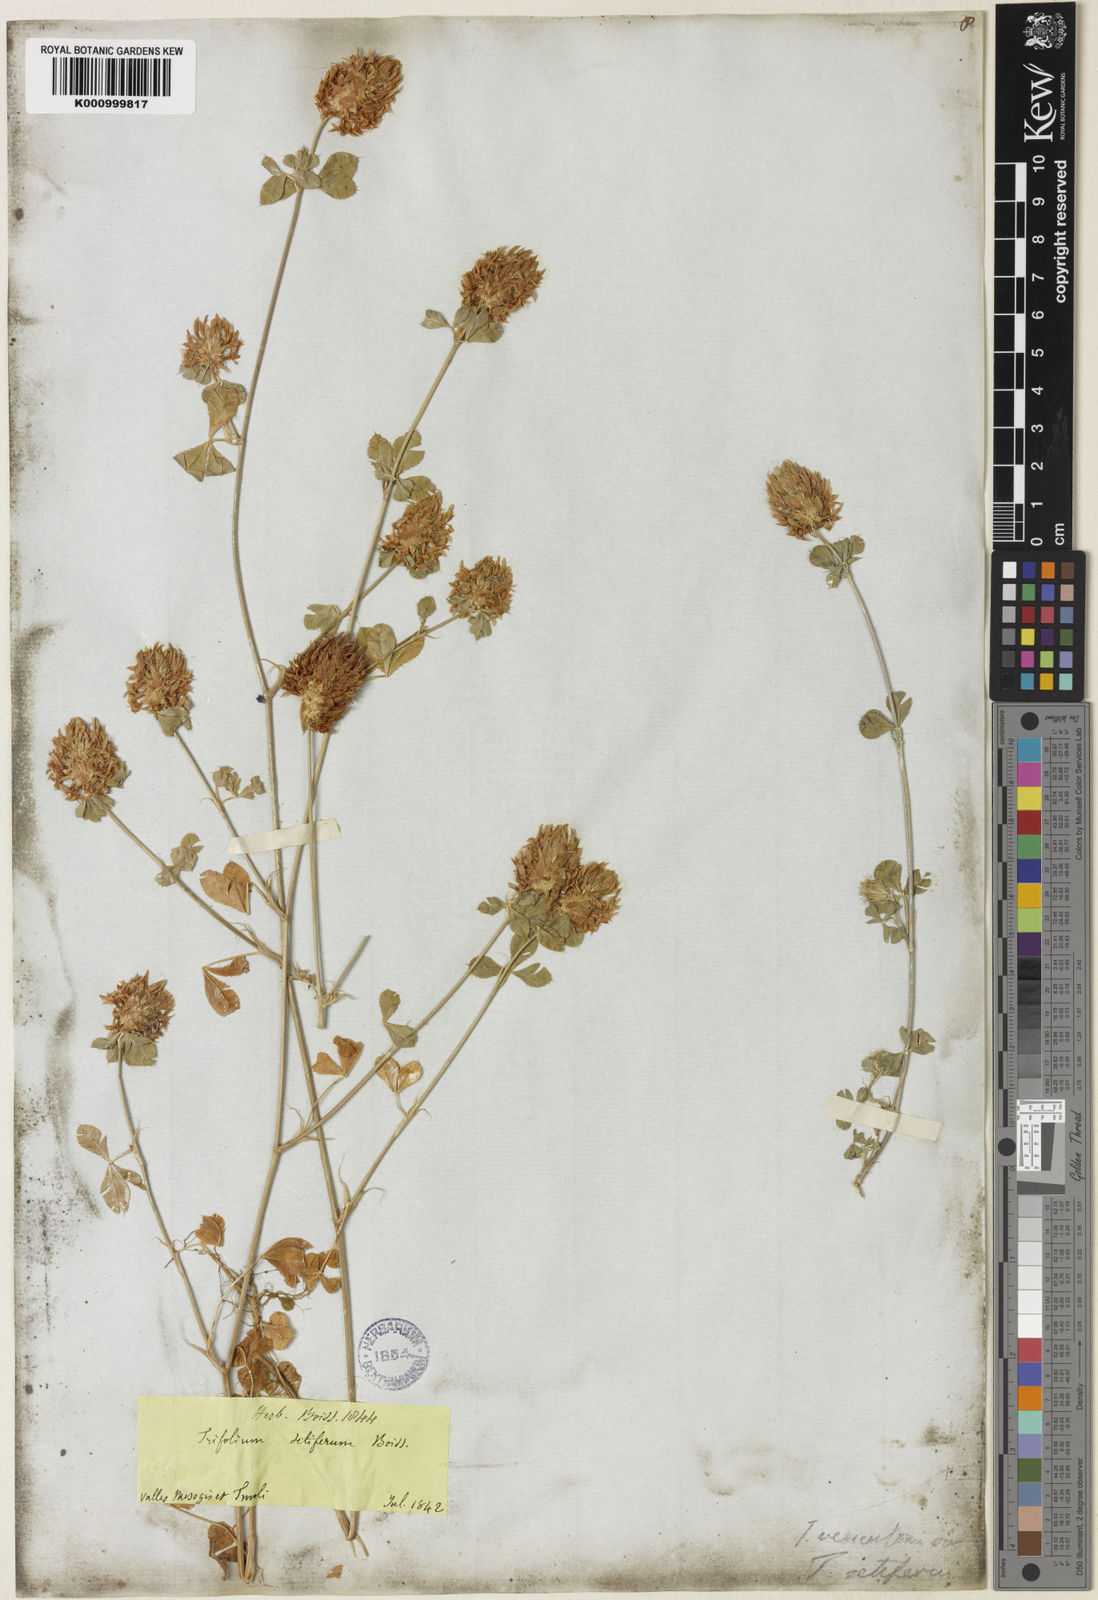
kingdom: Plantae
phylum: Tracheophyta
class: Magnoliopsida
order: Fabales
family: Fabaceae
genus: Trifolium
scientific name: Trifolium setiferum
